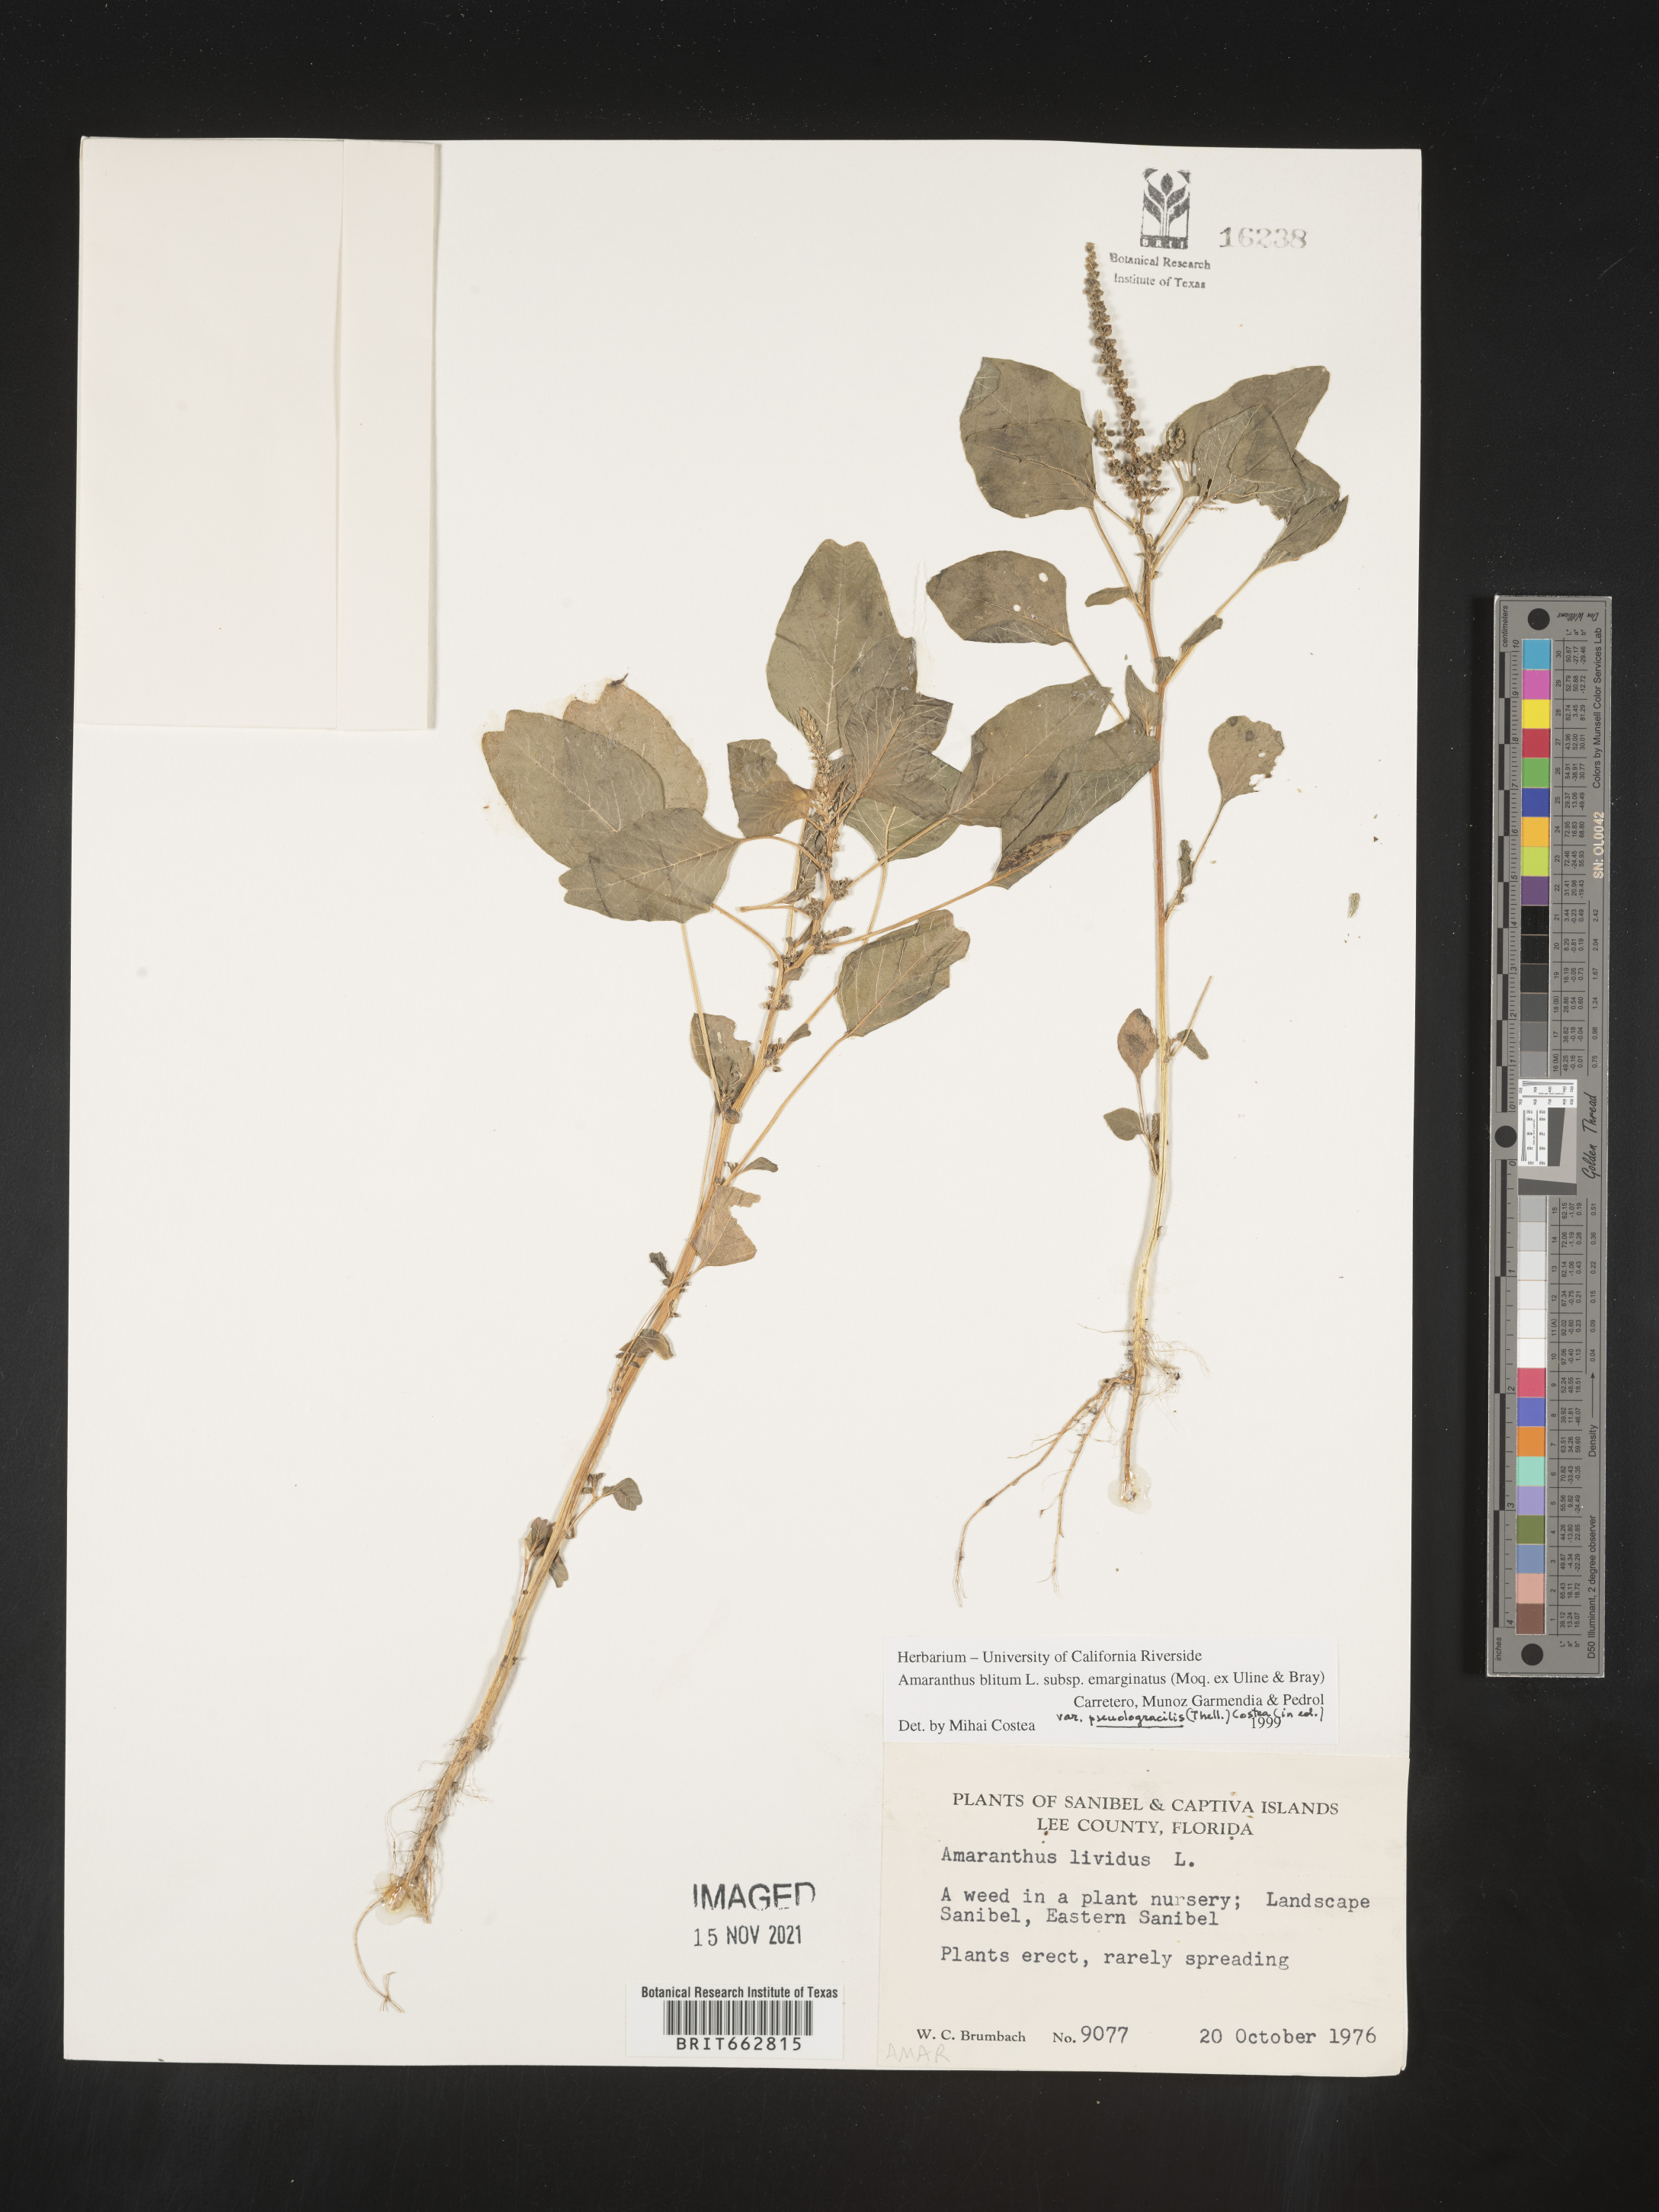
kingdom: Plantae
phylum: Tracheophyta
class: Magnoliopsida
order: Caryophyllales
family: Amaranthaceae
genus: Amaranthus
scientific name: Amaranthus blitum
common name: Purple amaranth
